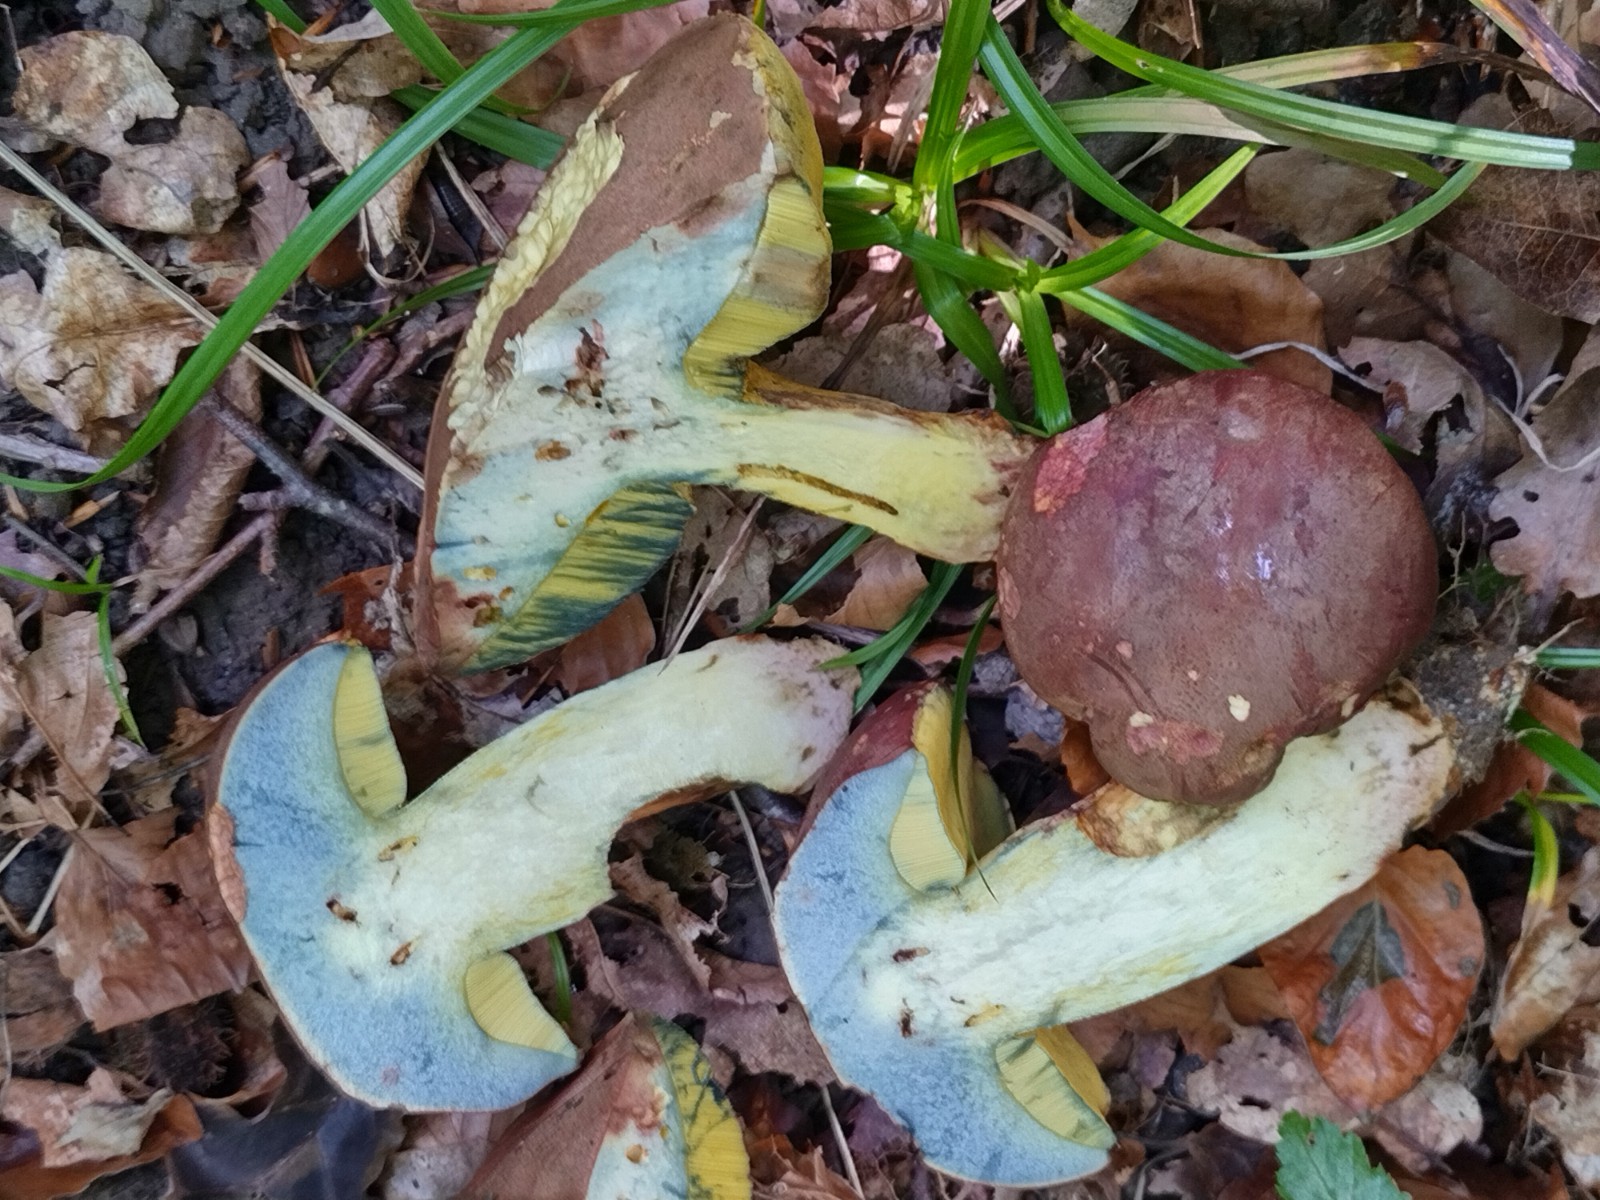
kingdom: Fungi
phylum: Basidiomycota
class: Agaricomycetes
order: Boletales
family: Boletaceae
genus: Butyriboletus
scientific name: Butyriboletus fuscoroseus
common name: brunrosa rørhat
